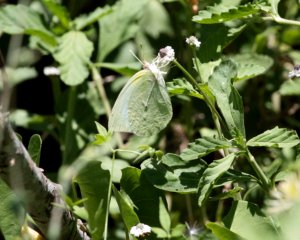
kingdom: Animalia
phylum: Arthropoda
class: Insecta
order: Lepidoptera
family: Pieridae
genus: Kricogonia
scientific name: Kricogonia lyside
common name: Lyside Sulphur
